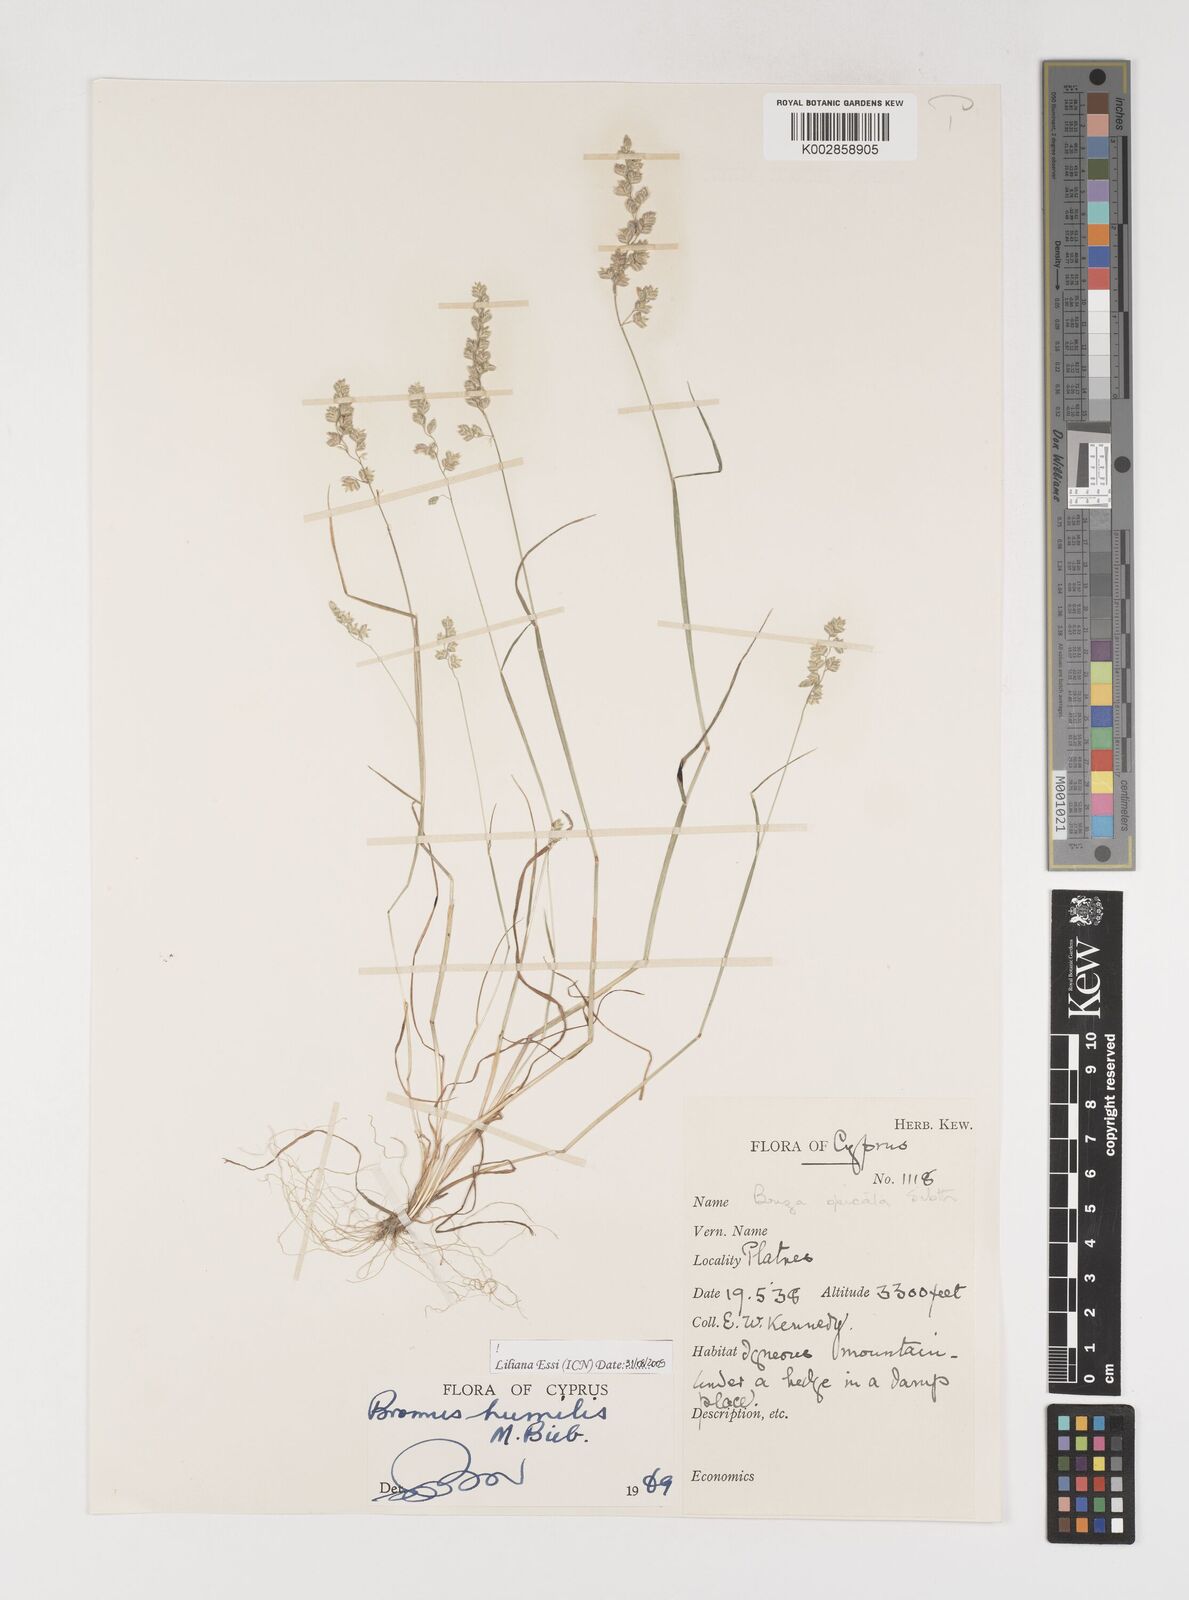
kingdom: Plantae
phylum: Tracheophyta
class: Liliopsida
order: Poales
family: Poaceae
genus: Briza
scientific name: Briza humilis
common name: Spiked quaking grass
